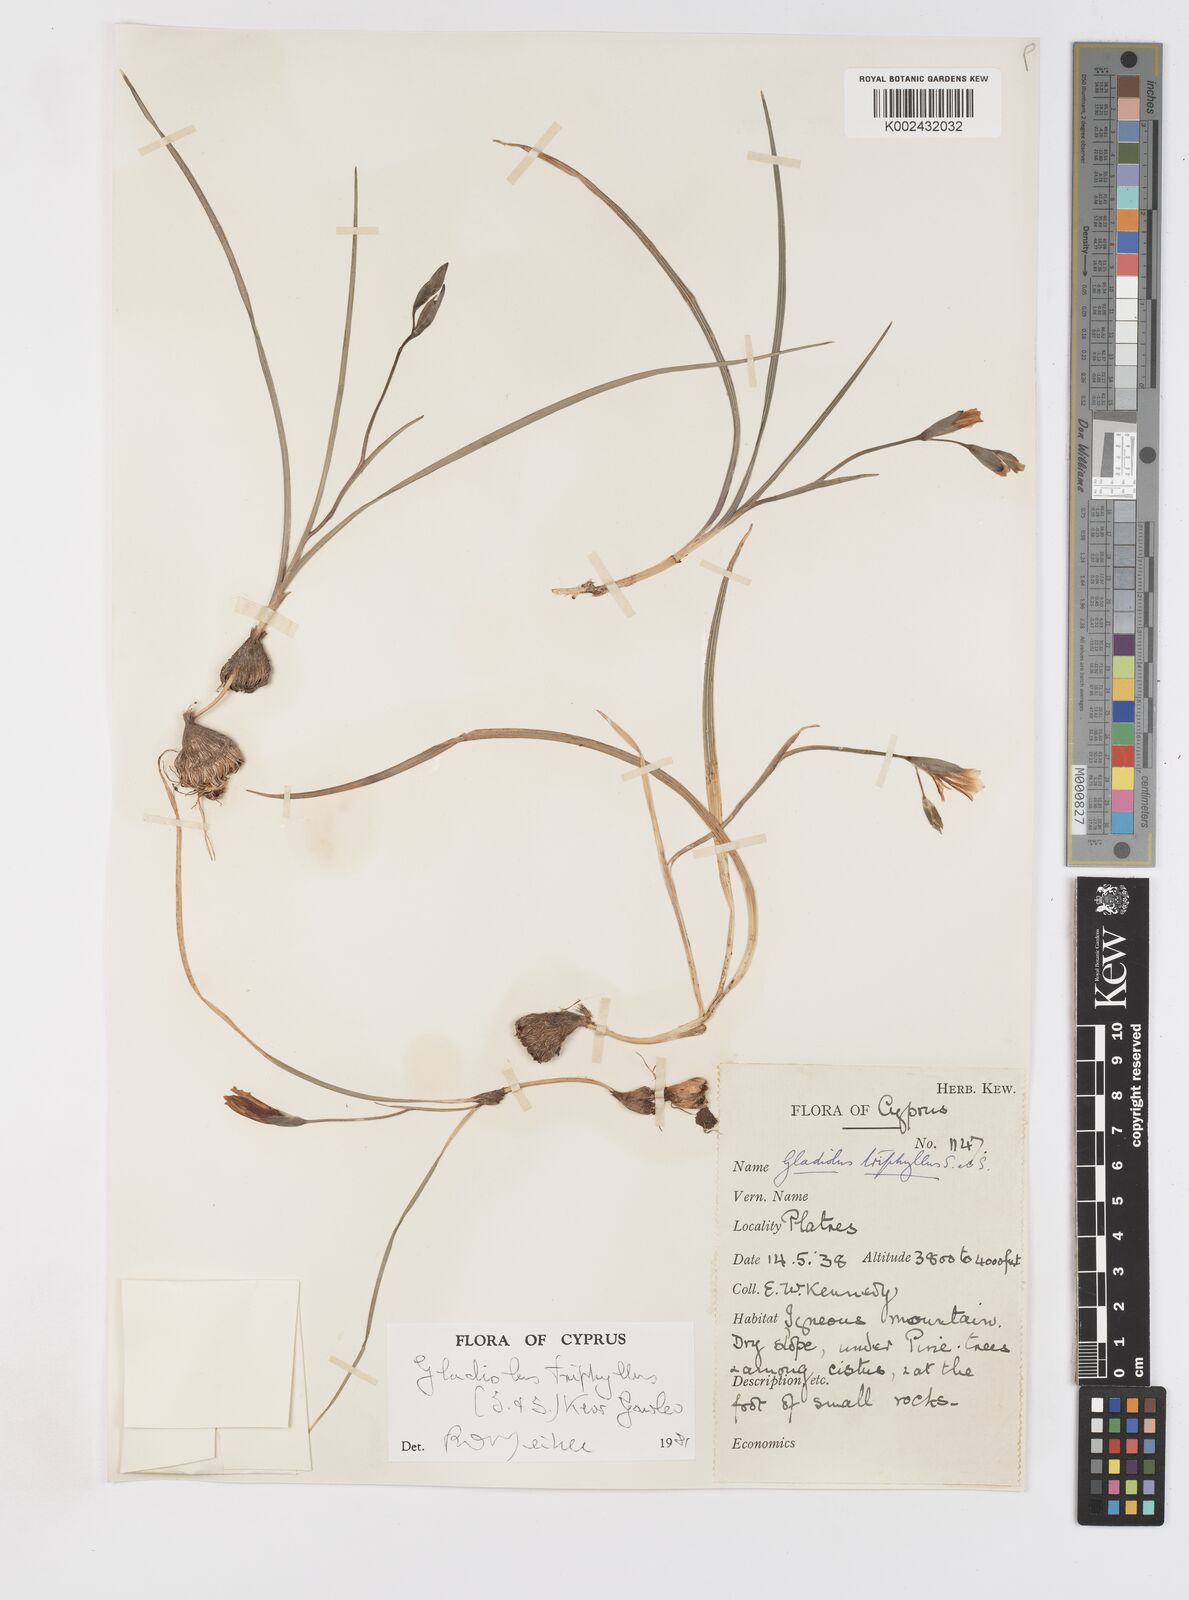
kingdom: Plantae
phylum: Tracheophyta
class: Liliopsida
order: Asparagales
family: Iridaceae
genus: Gladiolus
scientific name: Gladiolus triphyllus
